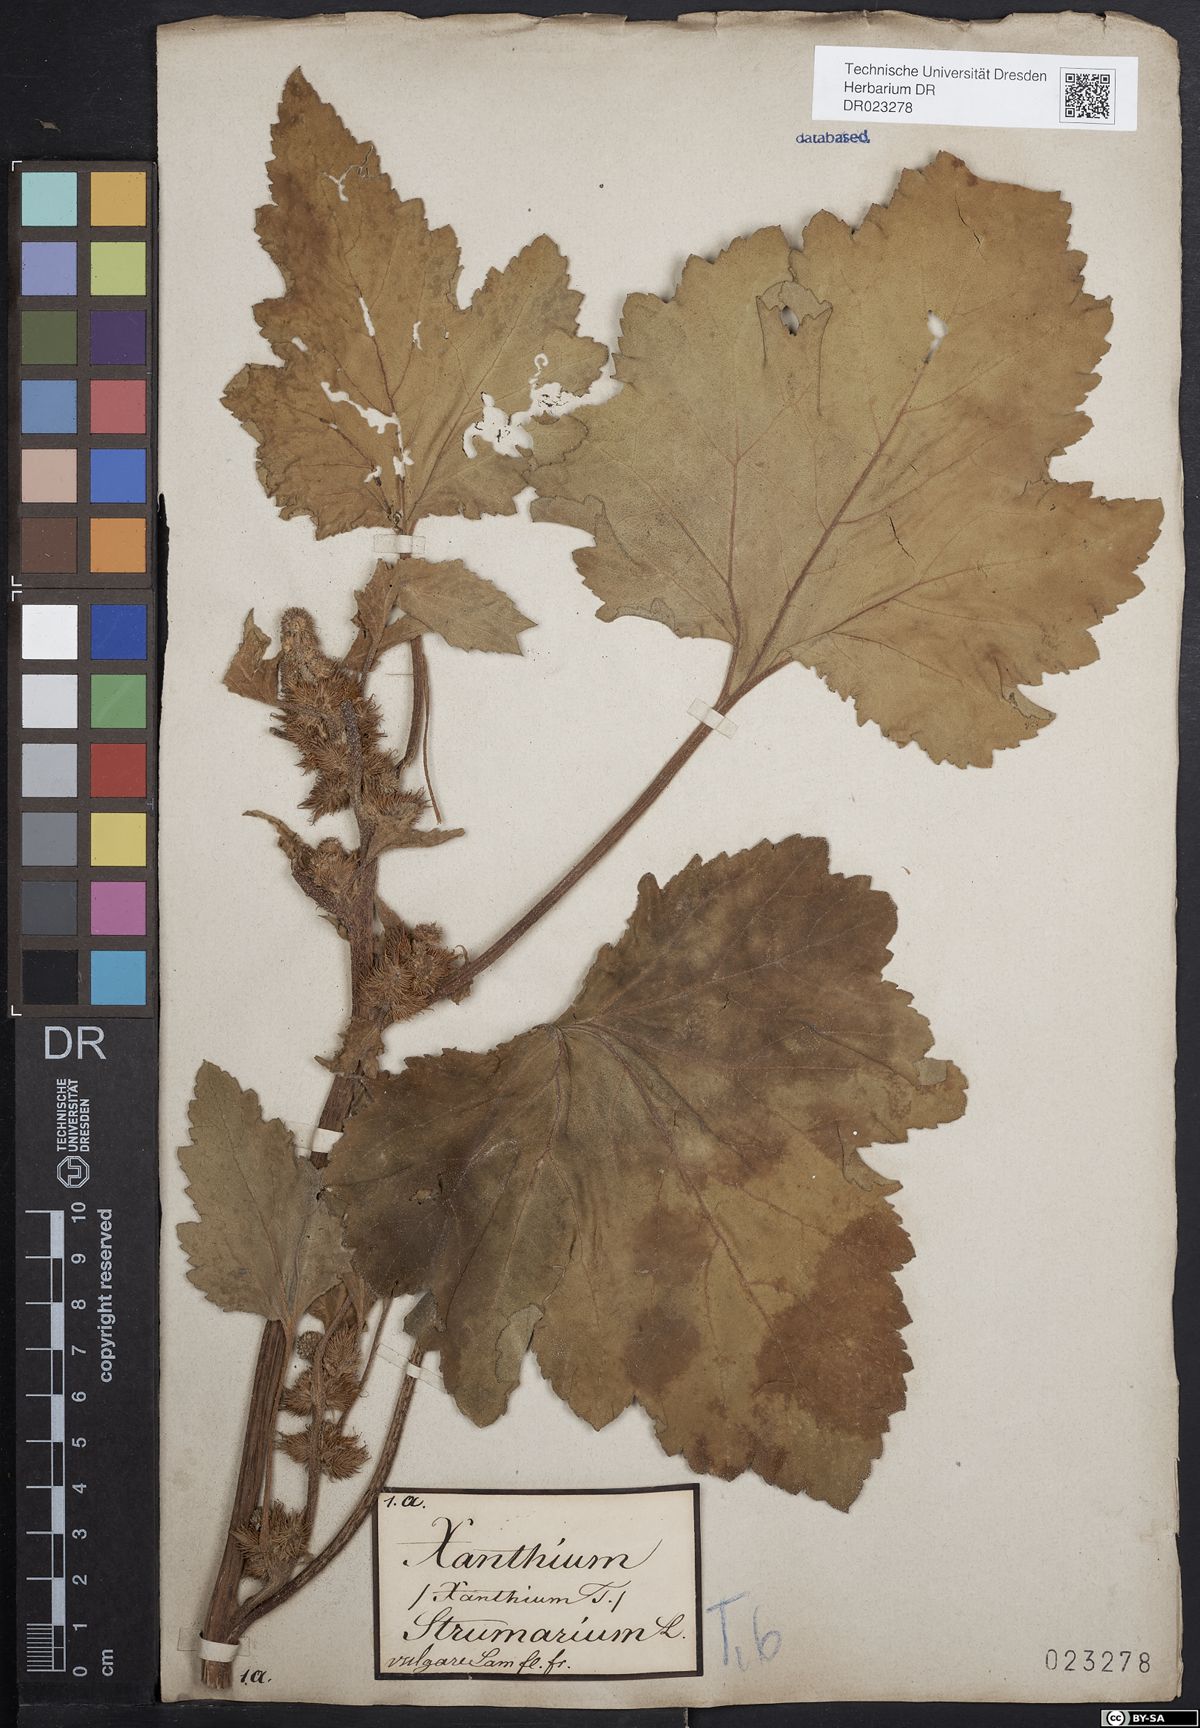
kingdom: Plantae
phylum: Tracheophyta
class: Magnoliopsida
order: Asterales
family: Asteraceae
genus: Xanthium
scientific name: Xanthium orientale
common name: Californian burr
